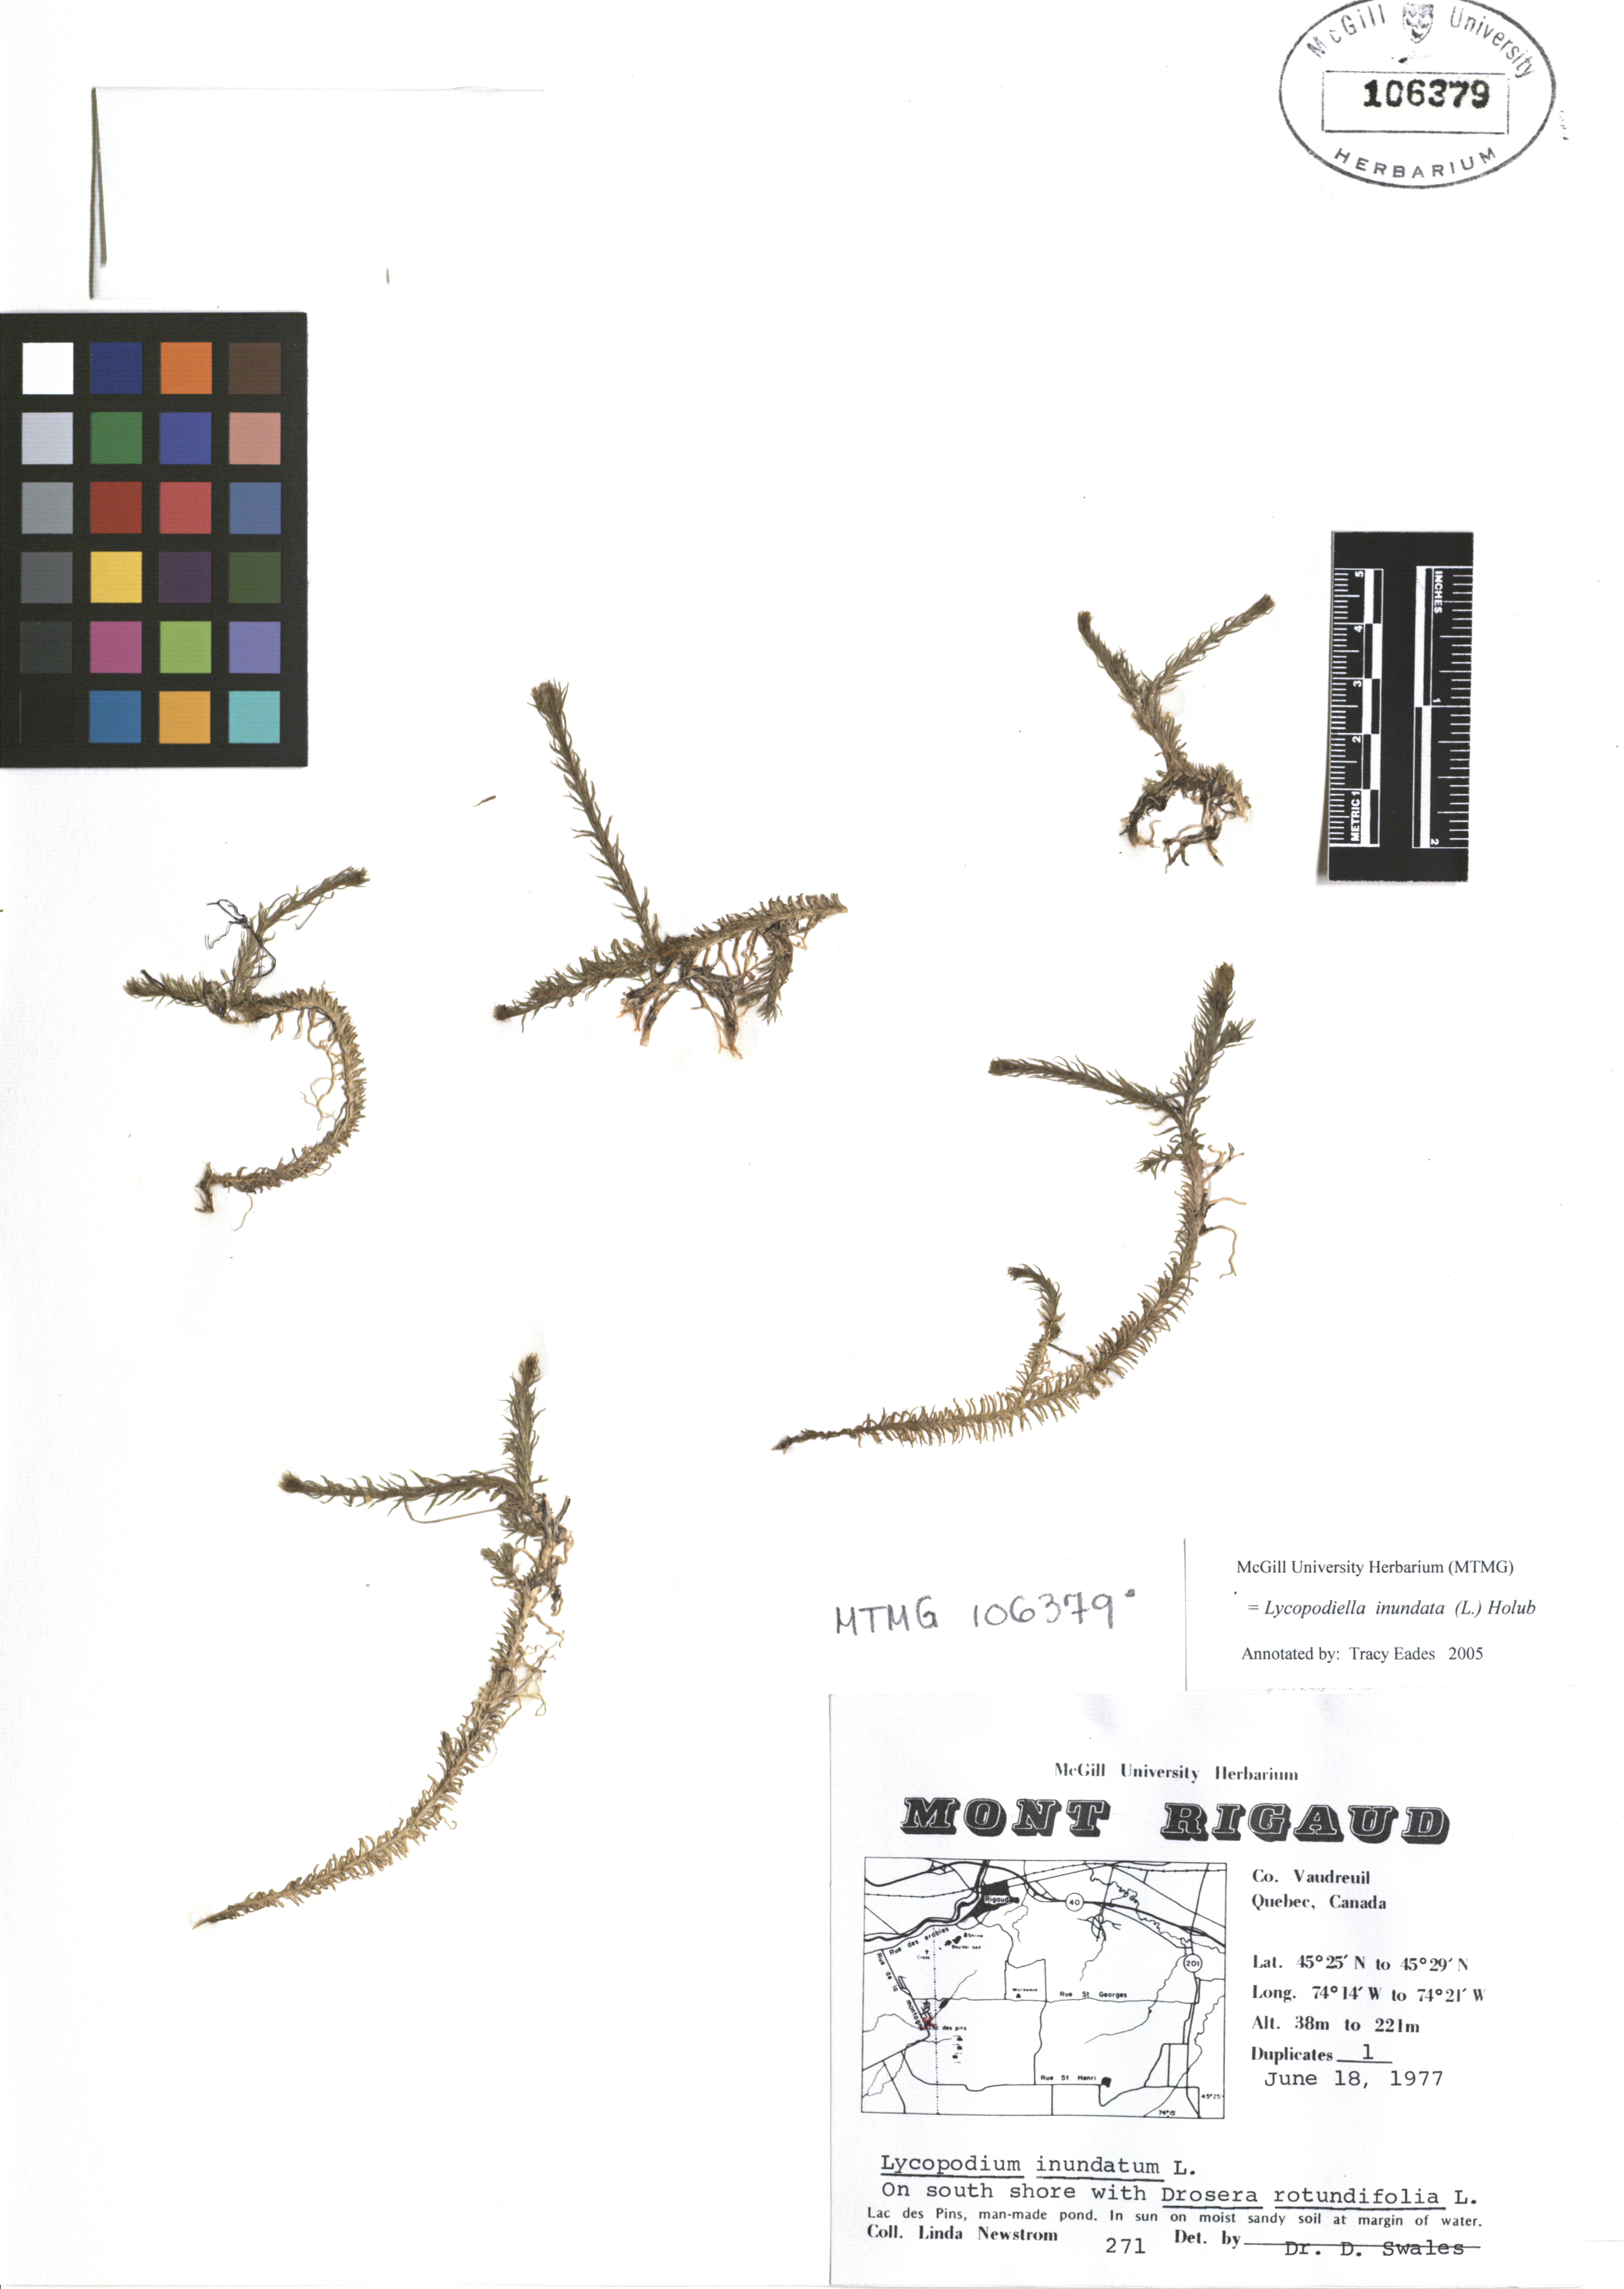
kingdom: Plantae
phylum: Tracheophyta
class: Lycopodiopsida
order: Lycopodiales
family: Lycopodiaceae
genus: Lycopodiella
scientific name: Lycopodiella inundata
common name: Marsh clubmoss
